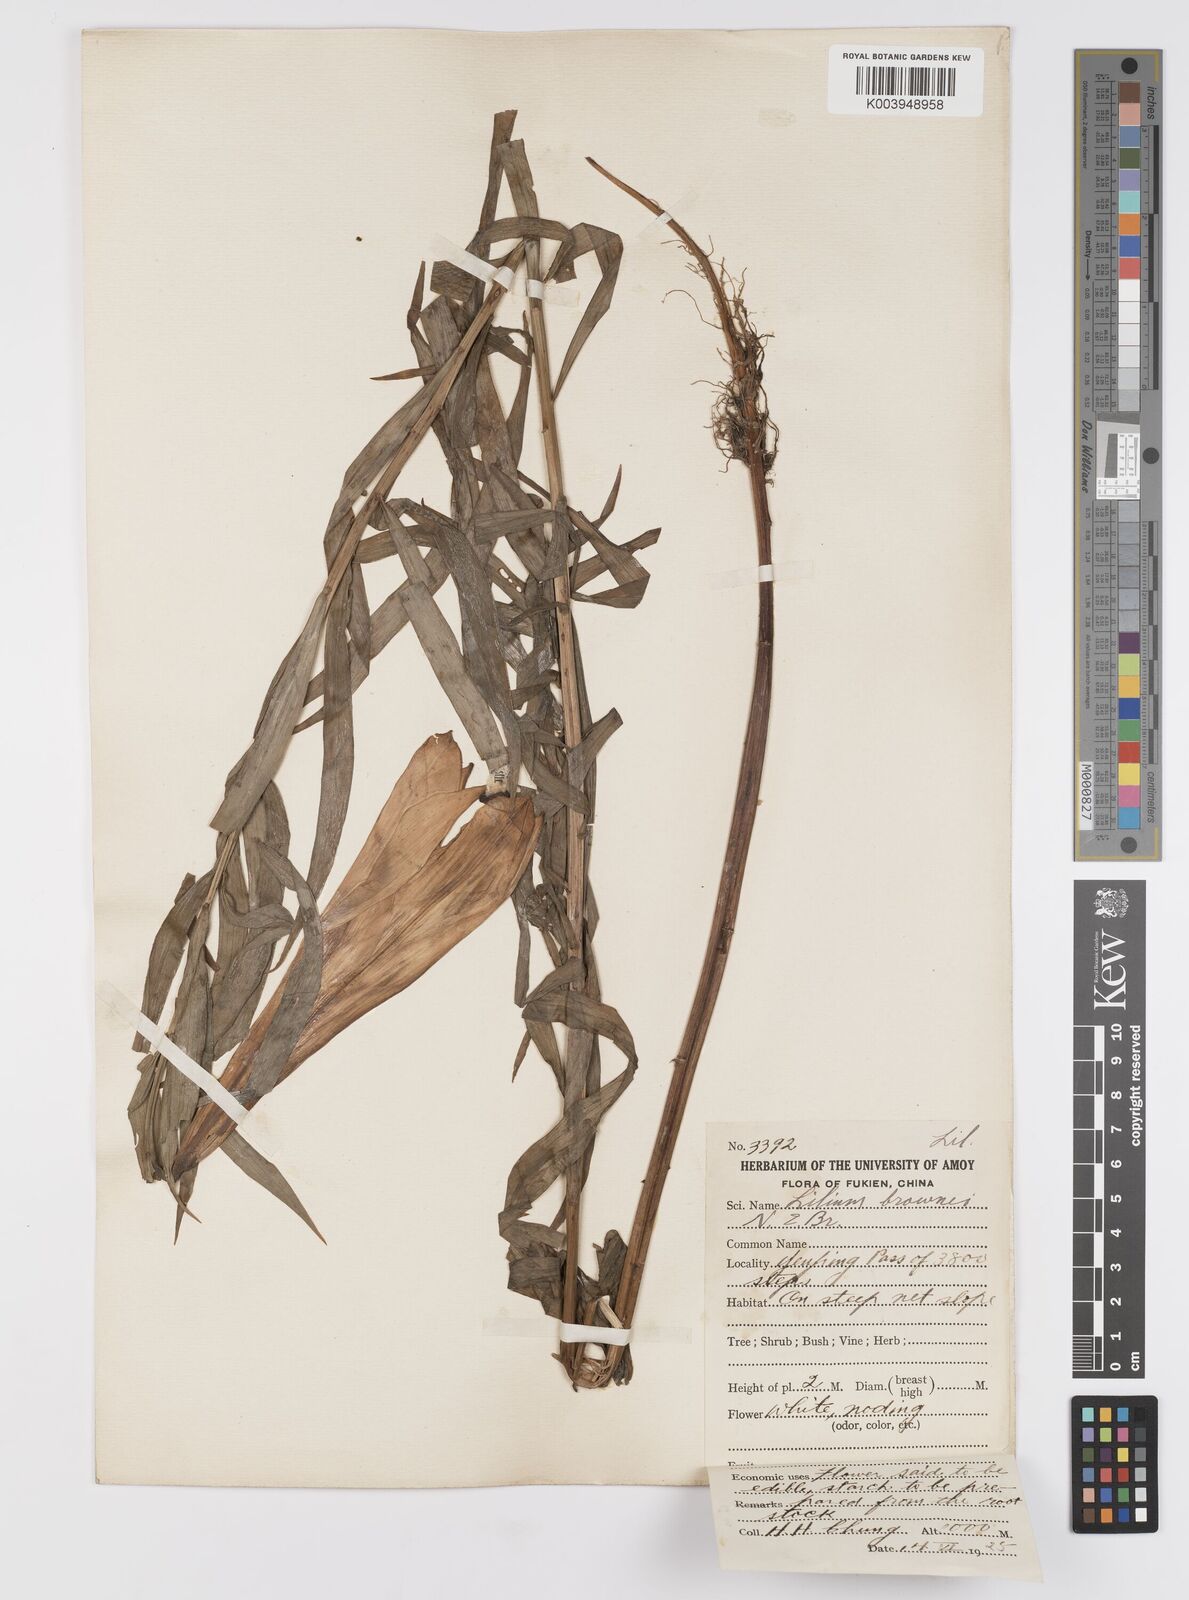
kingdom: Plantae
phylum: Tracheophyta
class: Liliopsida
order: Liliales
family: Liliaceae
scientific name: Liliaceae
